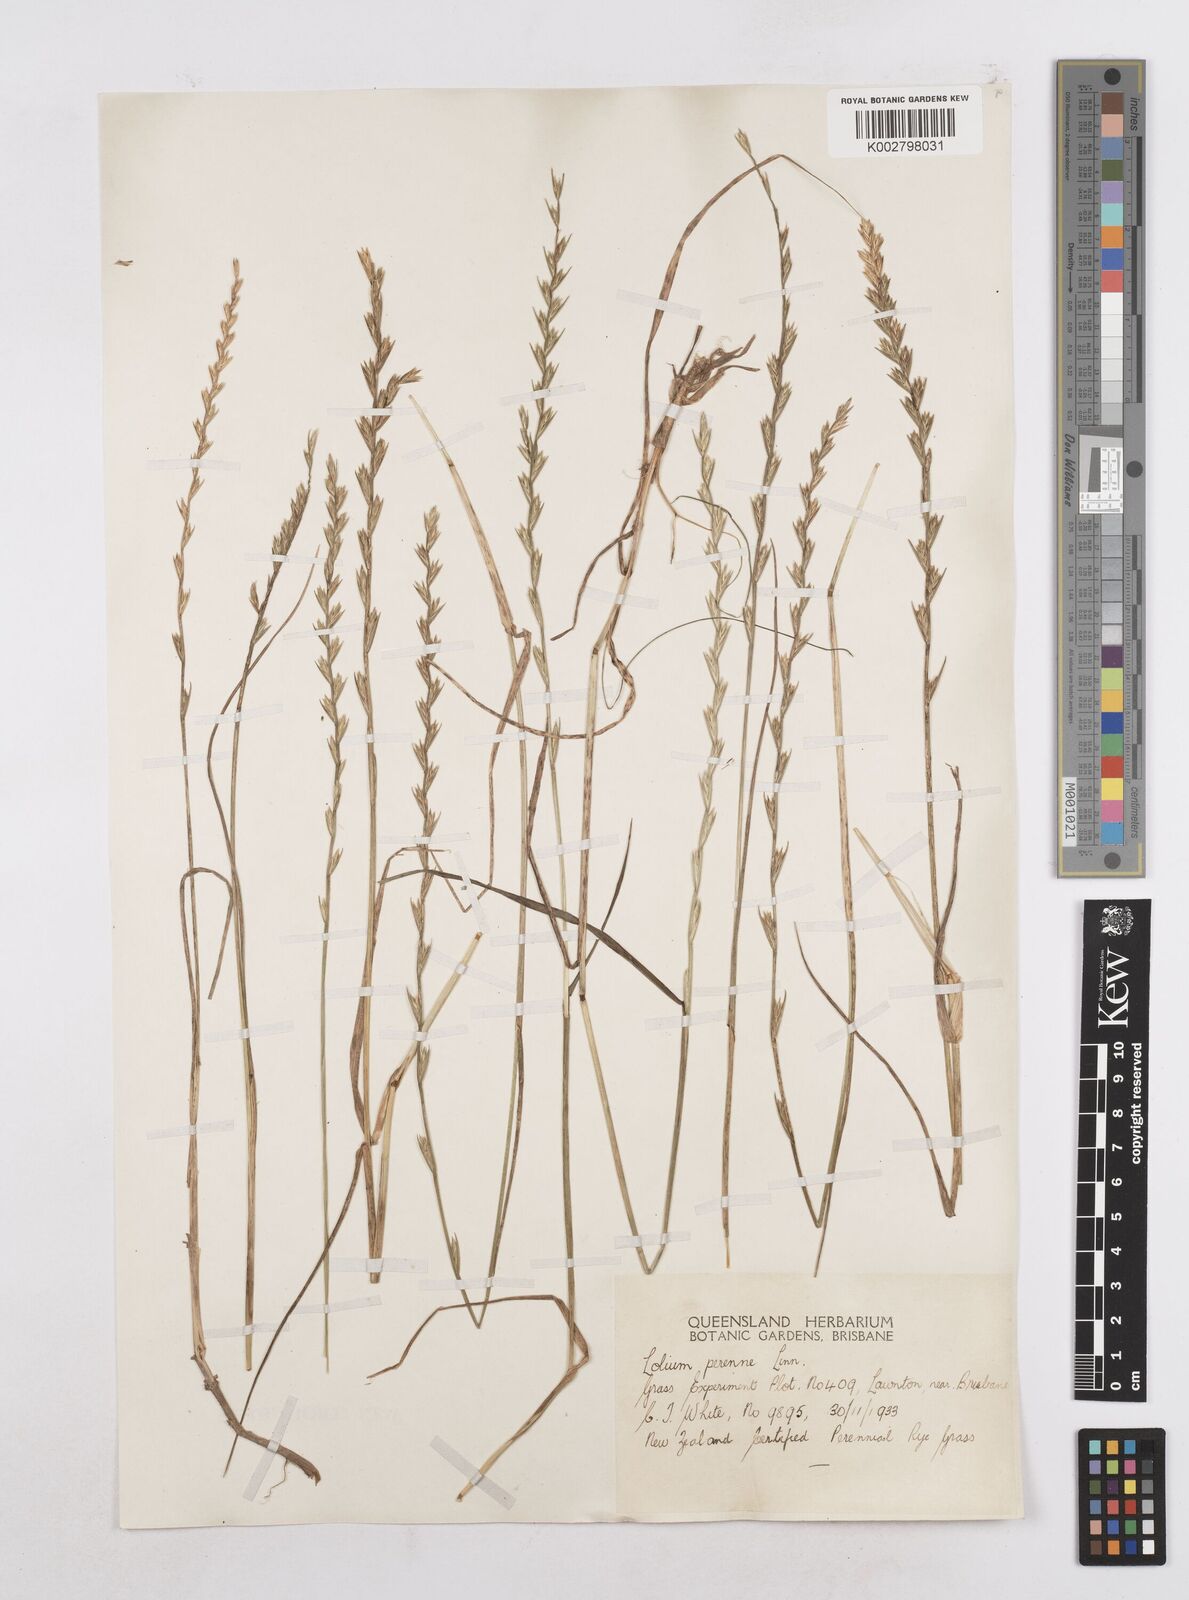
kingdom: Plantae
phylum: Tracheophyta
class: Liliopsida
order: Poales
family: Poaceae
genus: Lolium
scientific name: Lolium perenne
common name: Perennial ryegrass
